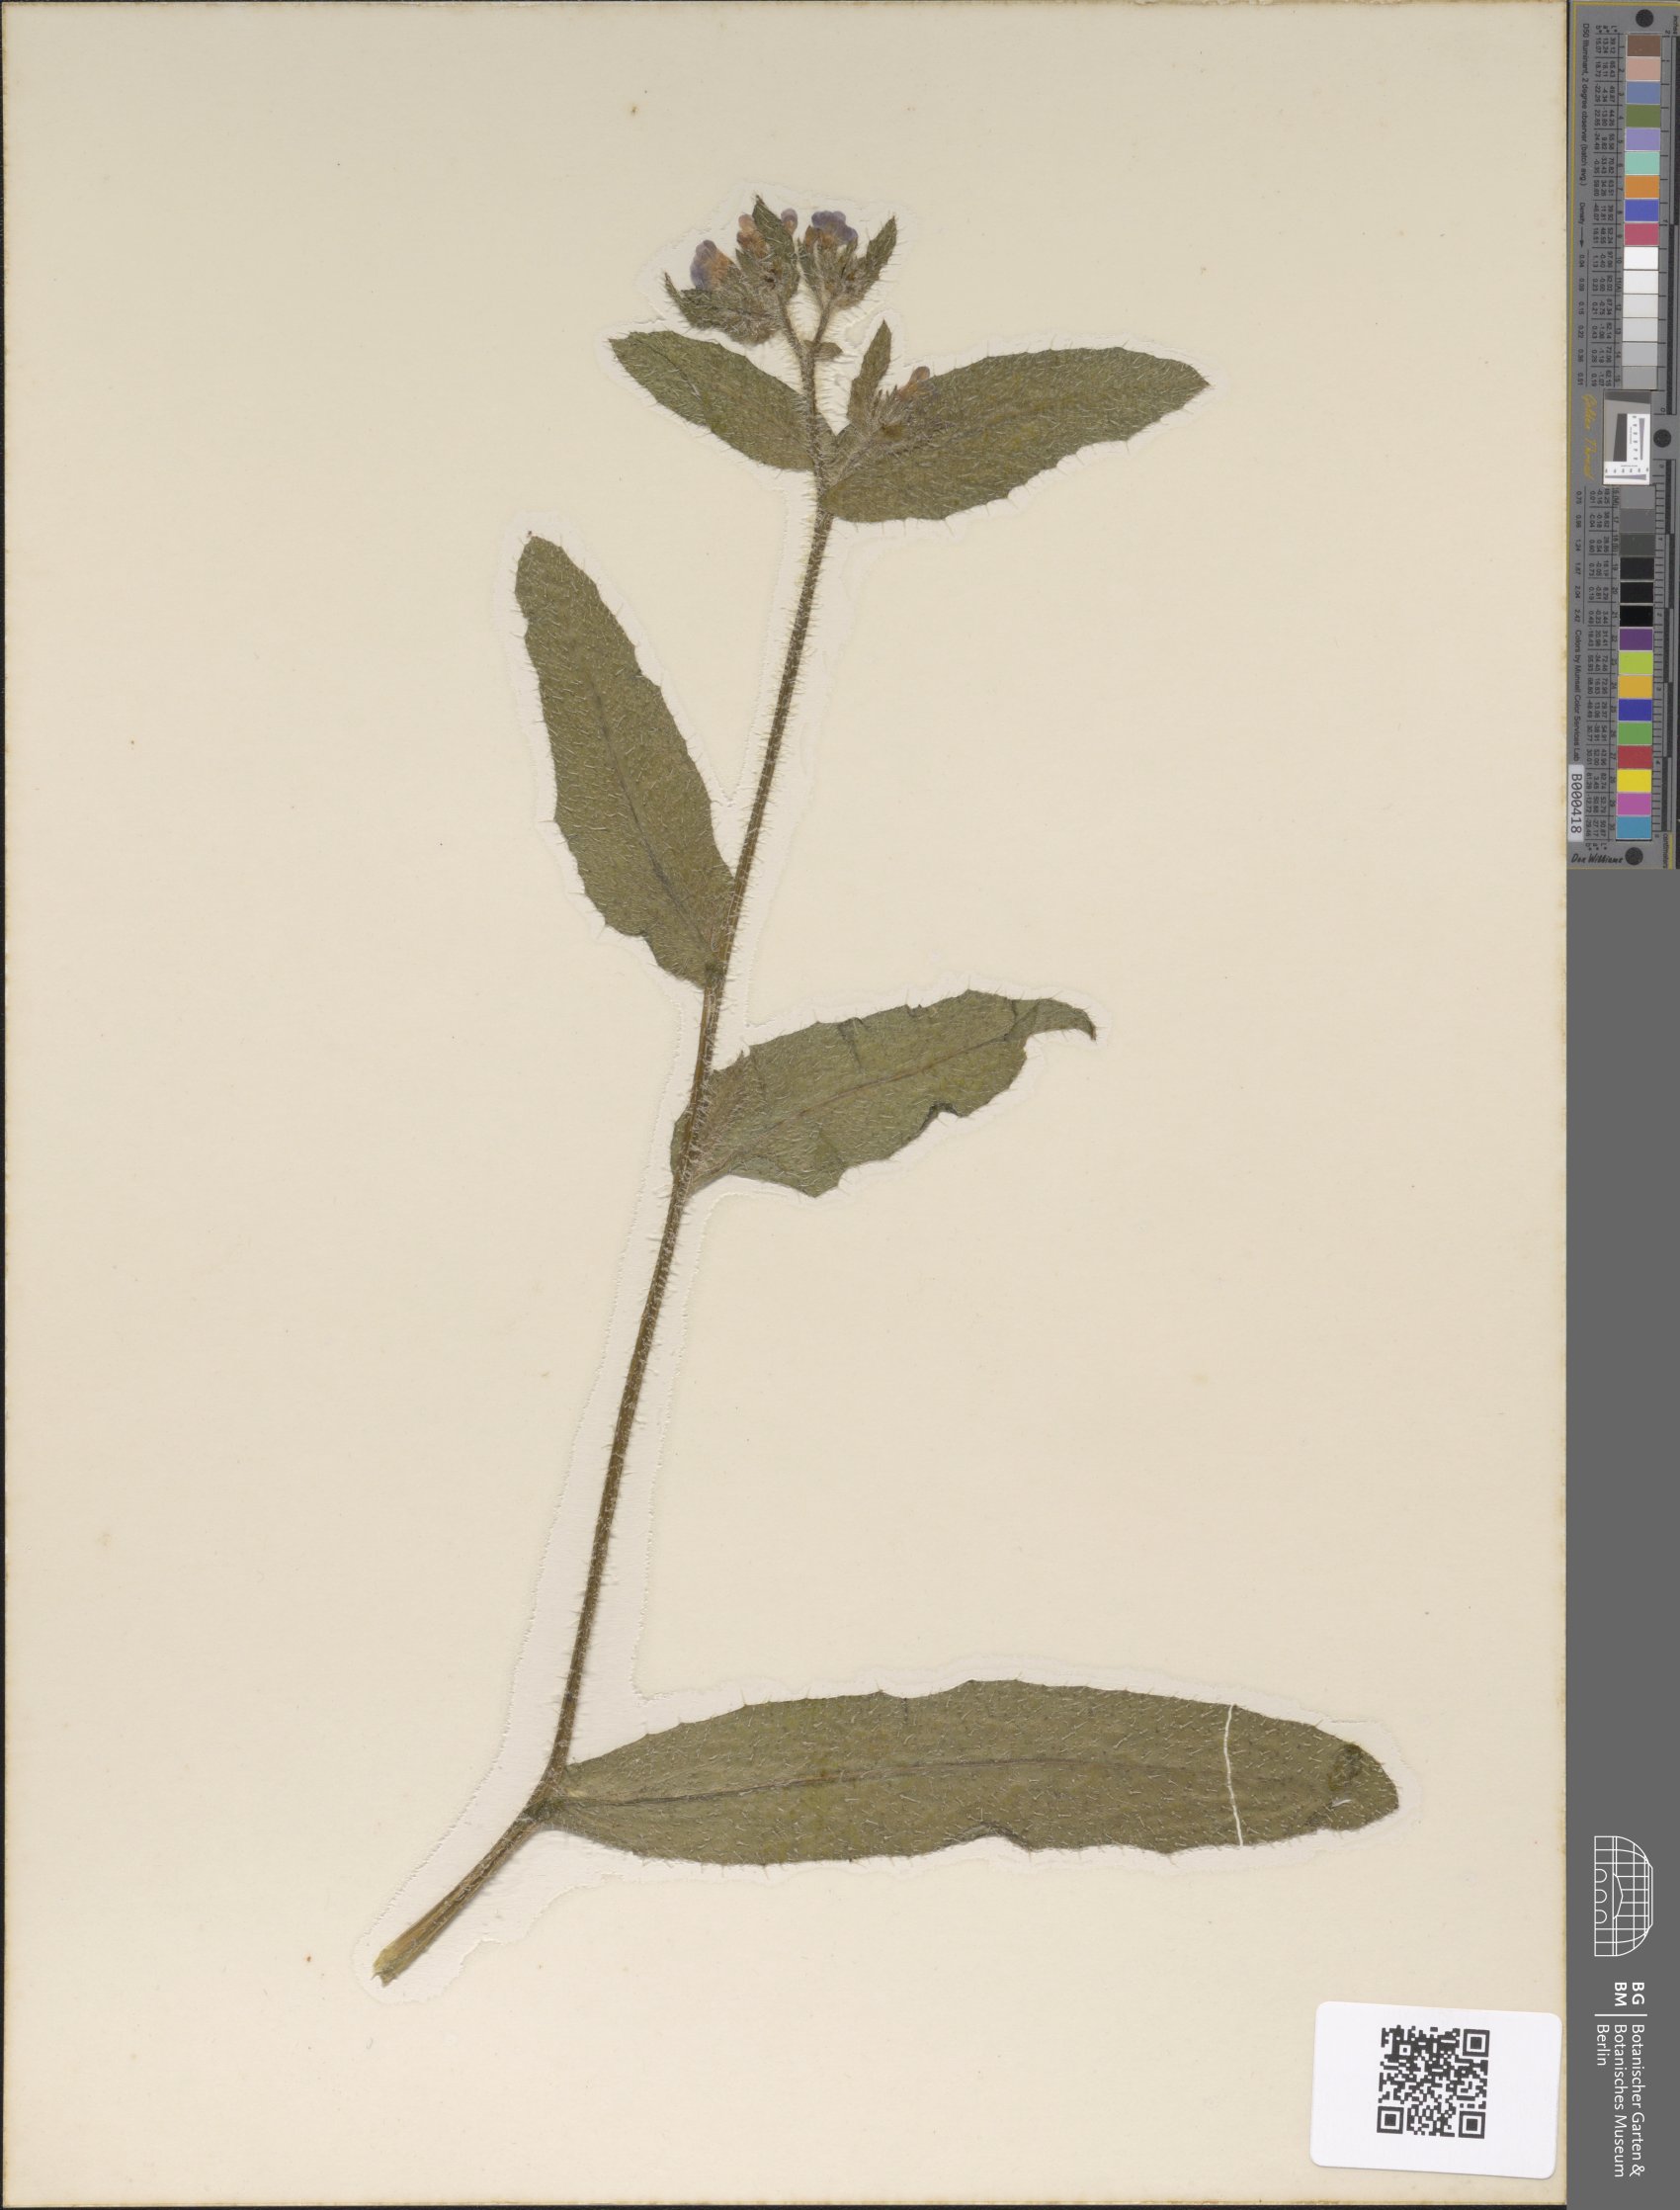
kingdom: Plantae
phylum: Tracheophyta
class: Magnoliopsida
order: Boraginales
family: Boraginaceae
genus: Lycopsis
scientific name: Lycopsis arvensis
